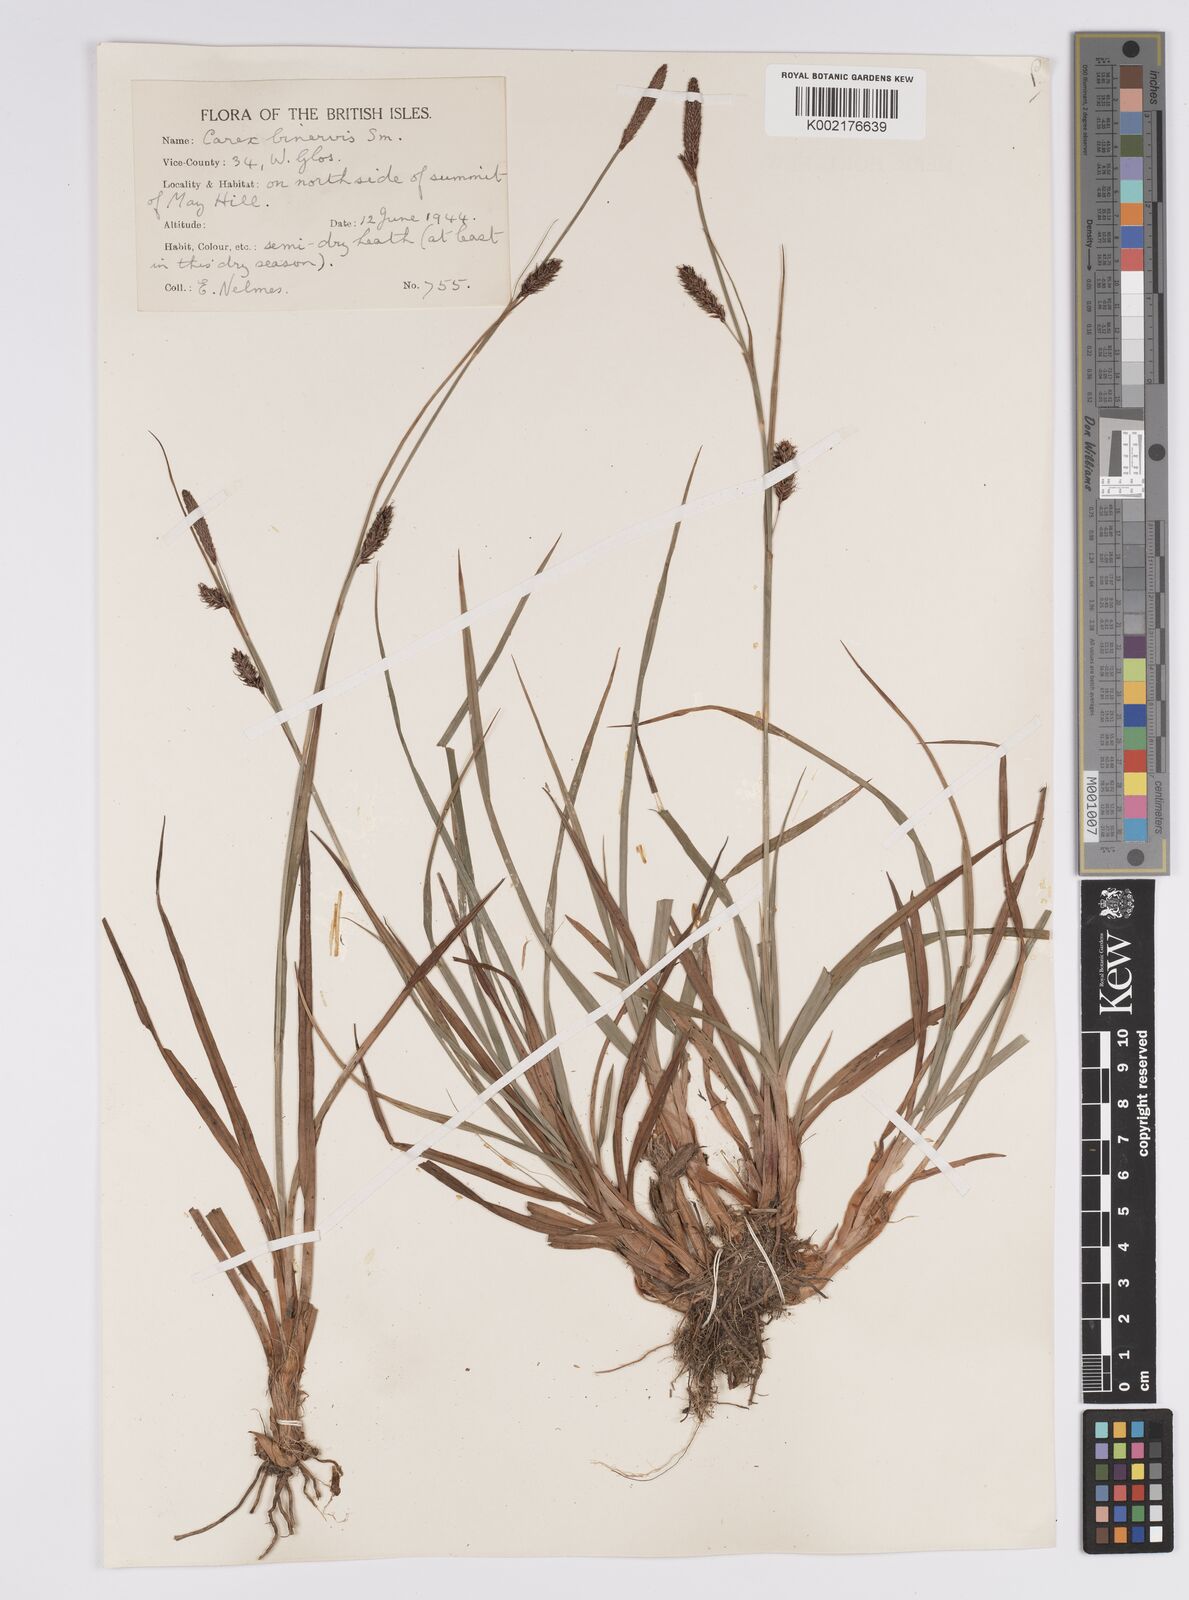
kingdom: Plantae
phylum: Tracheophyta
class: Liliopsida
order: Poales
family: Cyperaceae
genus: Carex
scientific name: Carex binervis
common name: Green-ribbed sedge
